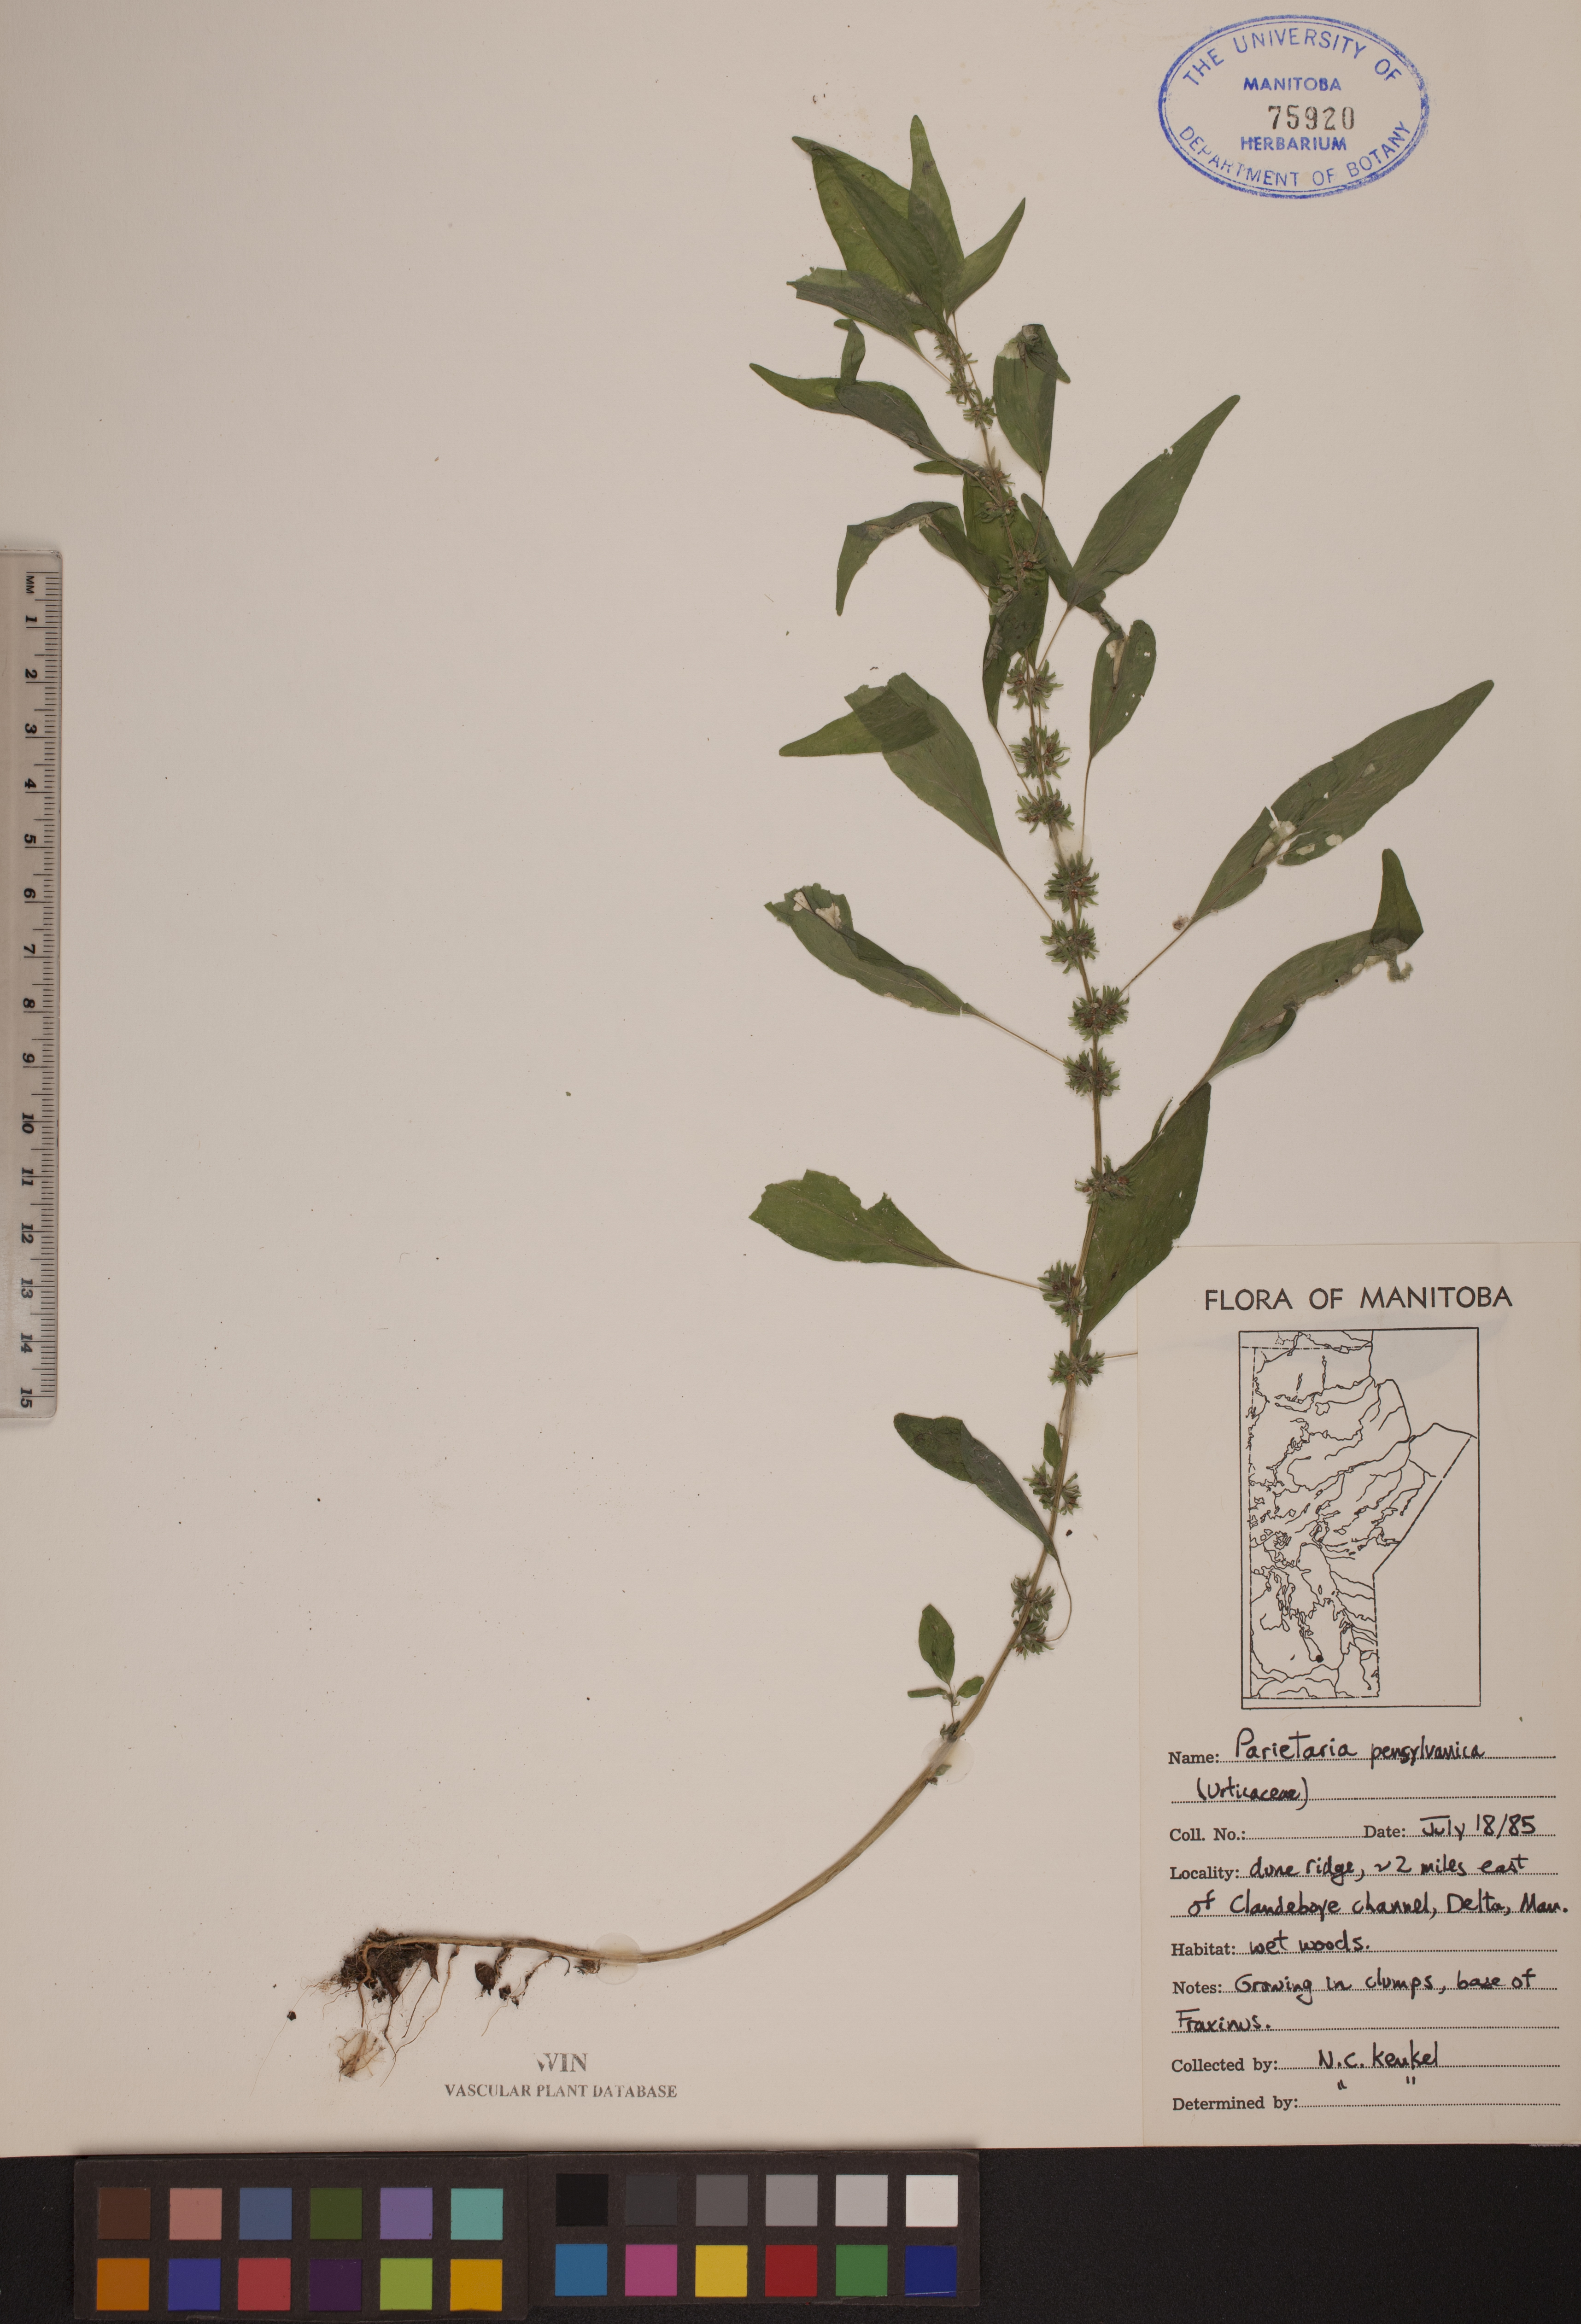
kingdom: Plantae
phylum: Tracheophyta
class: Magnoliopsida
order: Rosales
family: Urticaceae
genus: Parietaria
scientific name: Parietaria pensylvanica
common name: Pennsylvania pellitory
